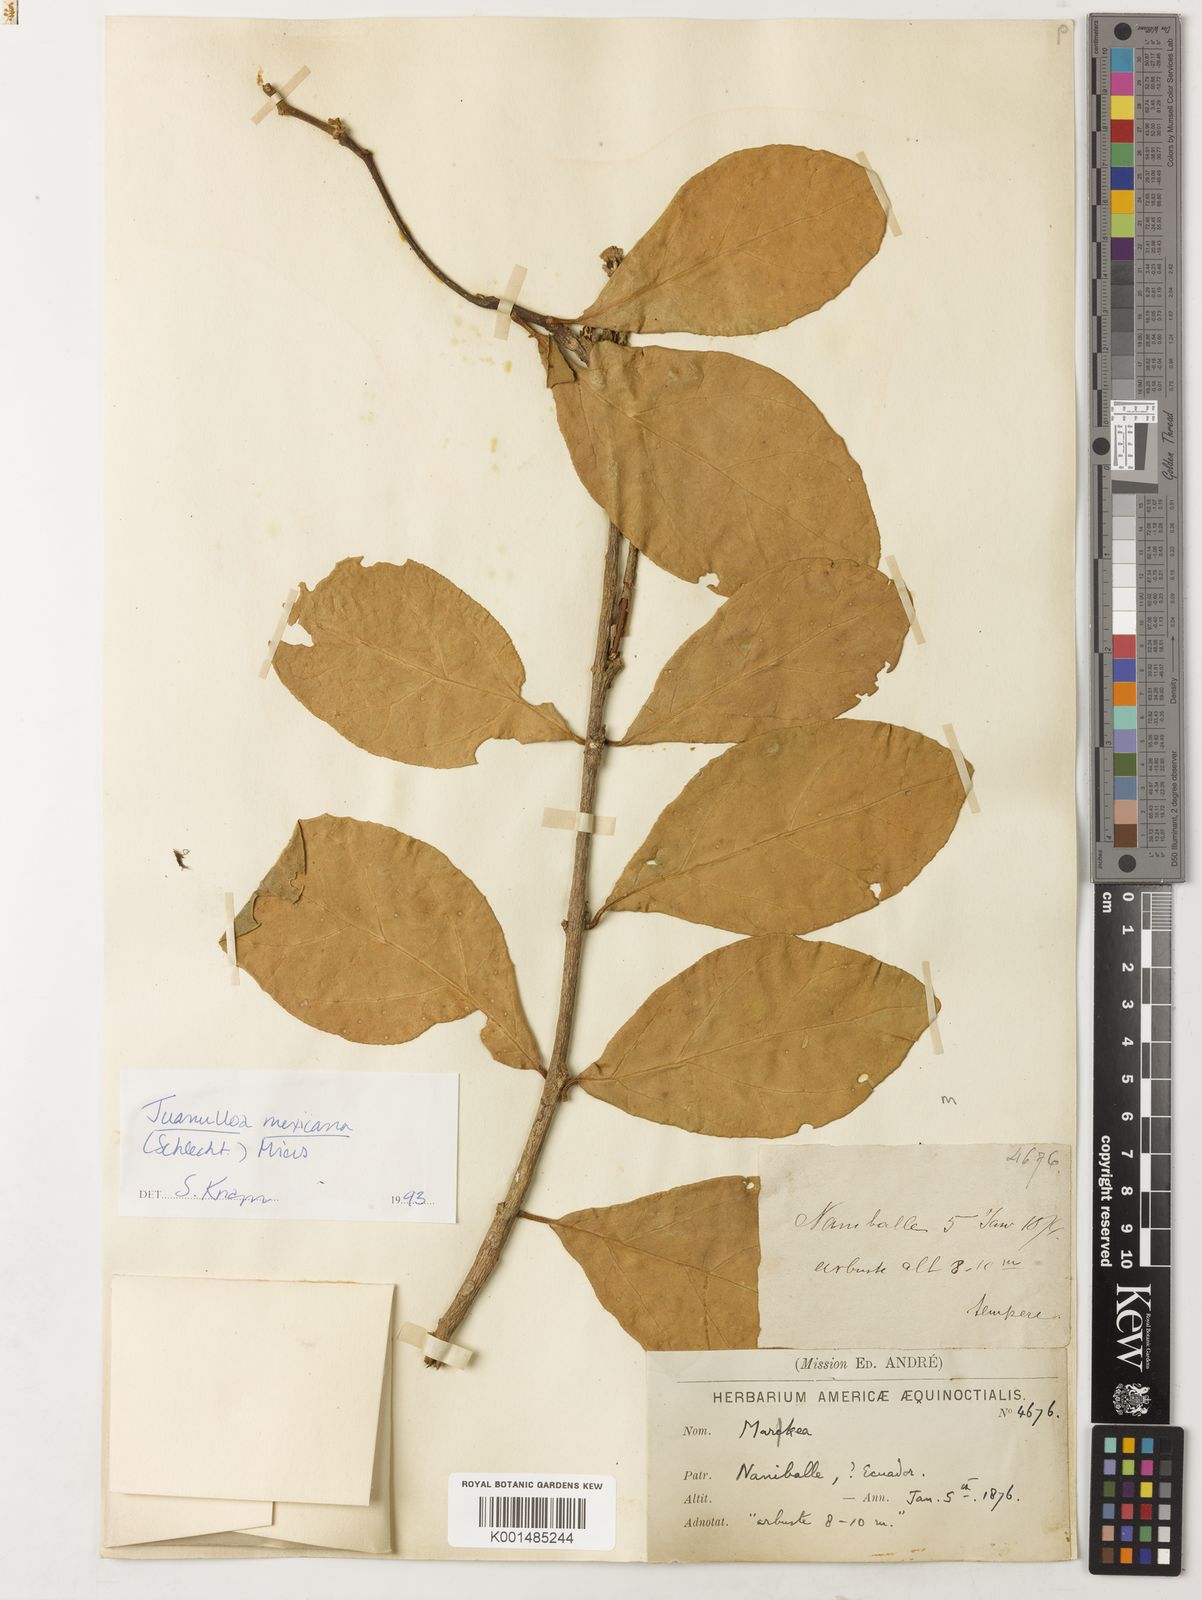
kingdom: Plantae
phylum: Tracheophyta
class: Magnoliopsida
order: Solanales
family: Solanaceae
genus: Juanulloa
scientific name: Juanulloa mexicana
